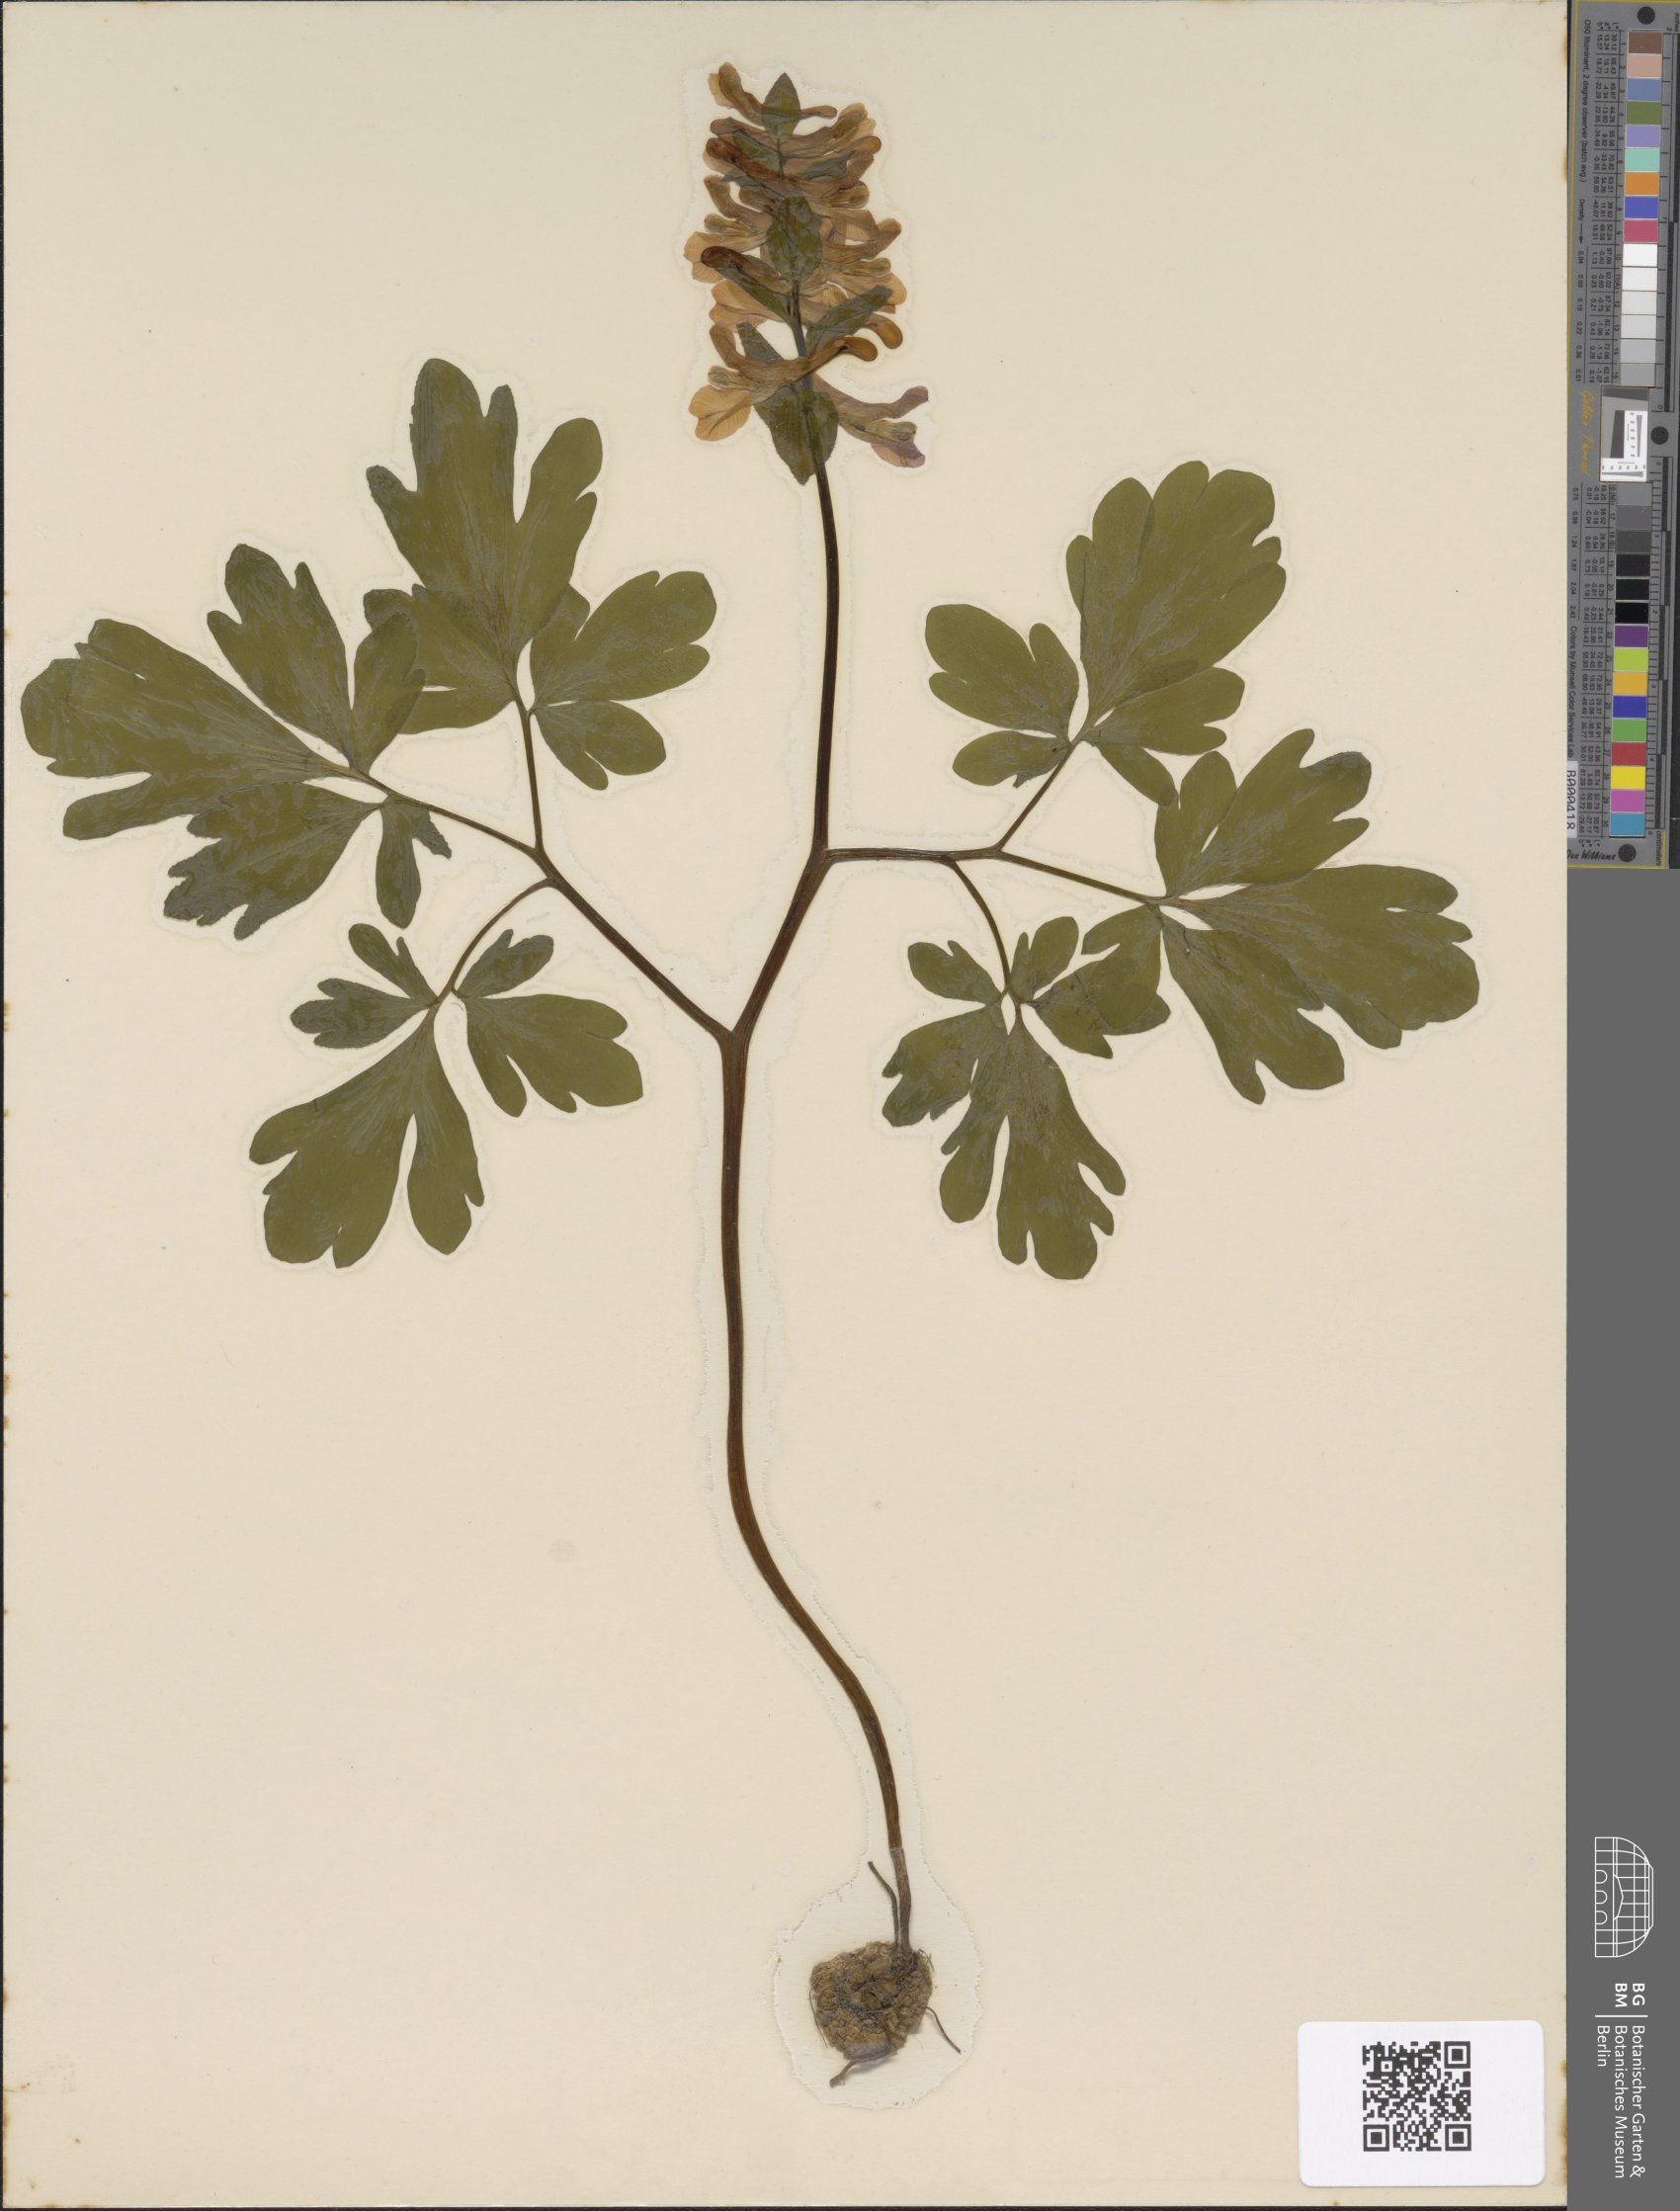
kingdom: Plantae
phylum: Tracheophyta
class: Magnoliopsida
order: Ranunculales
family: Papaveraceae
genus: Corydalis
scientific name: Corydalis cava
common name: Hollowroot
